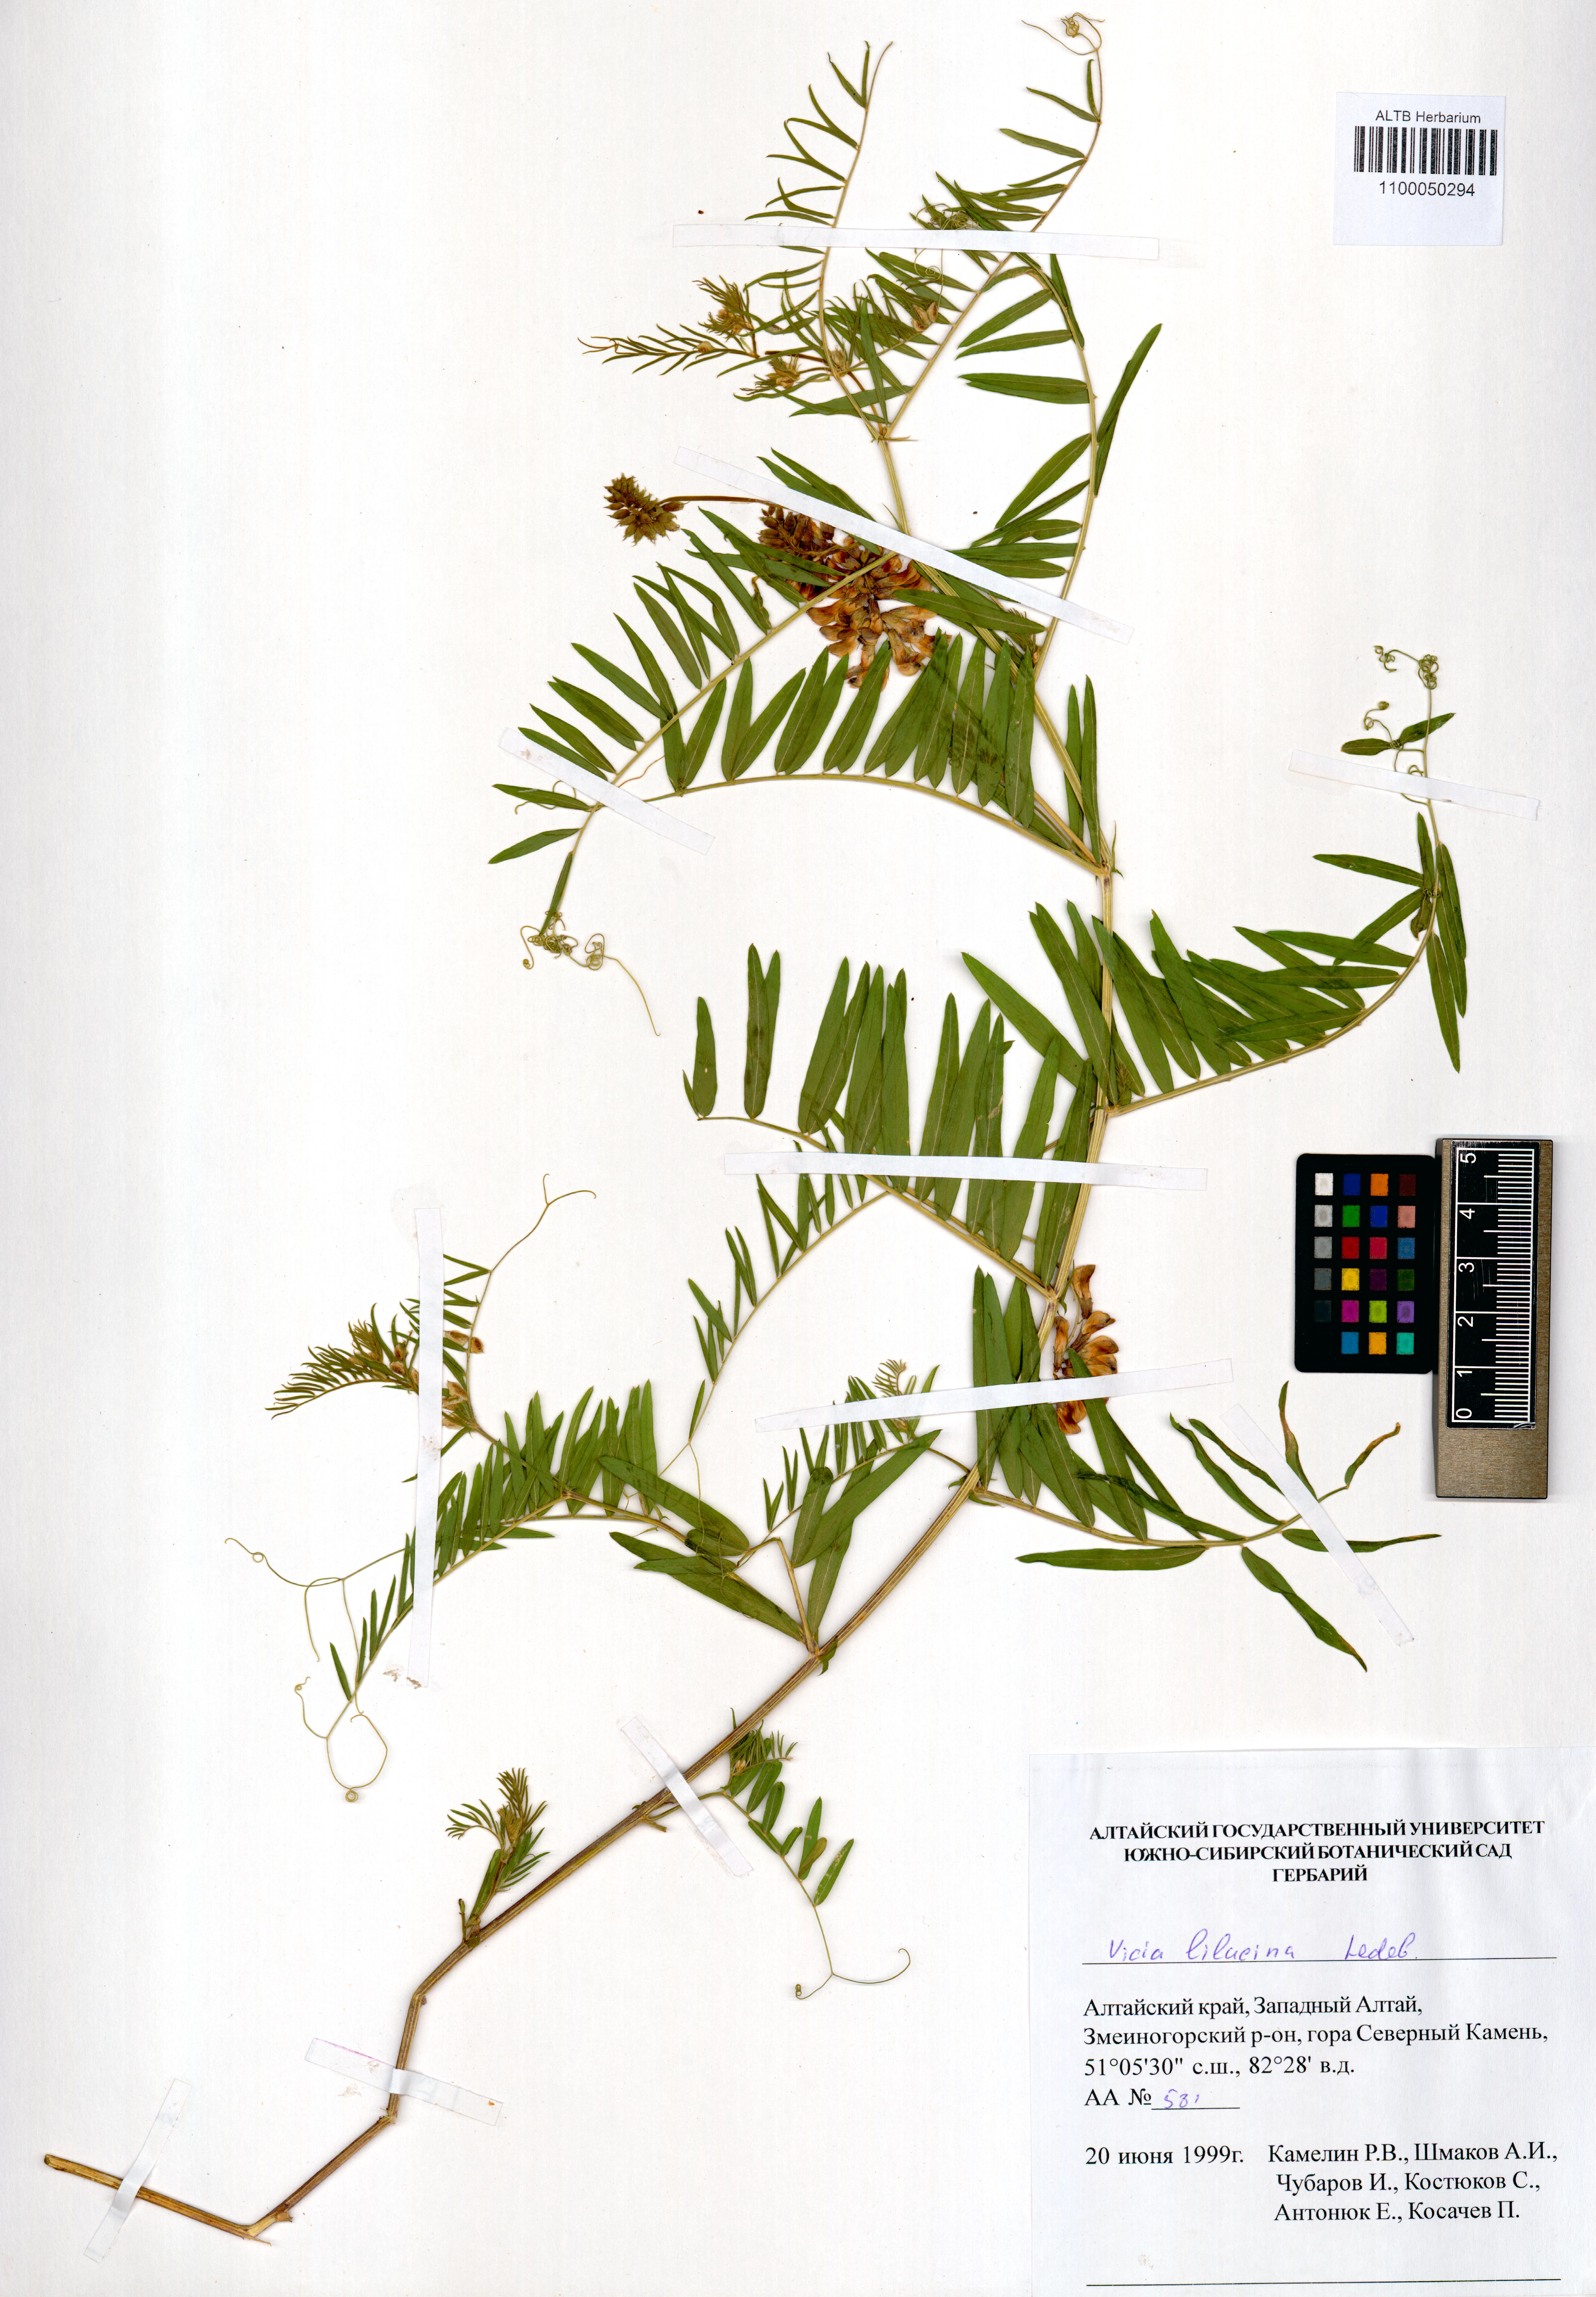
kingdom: Plantae
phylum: Tracheophyta
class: Magnoliopsida
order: Fabales
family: Fabaceae
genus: Vicia
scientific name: Vicia lilacina
